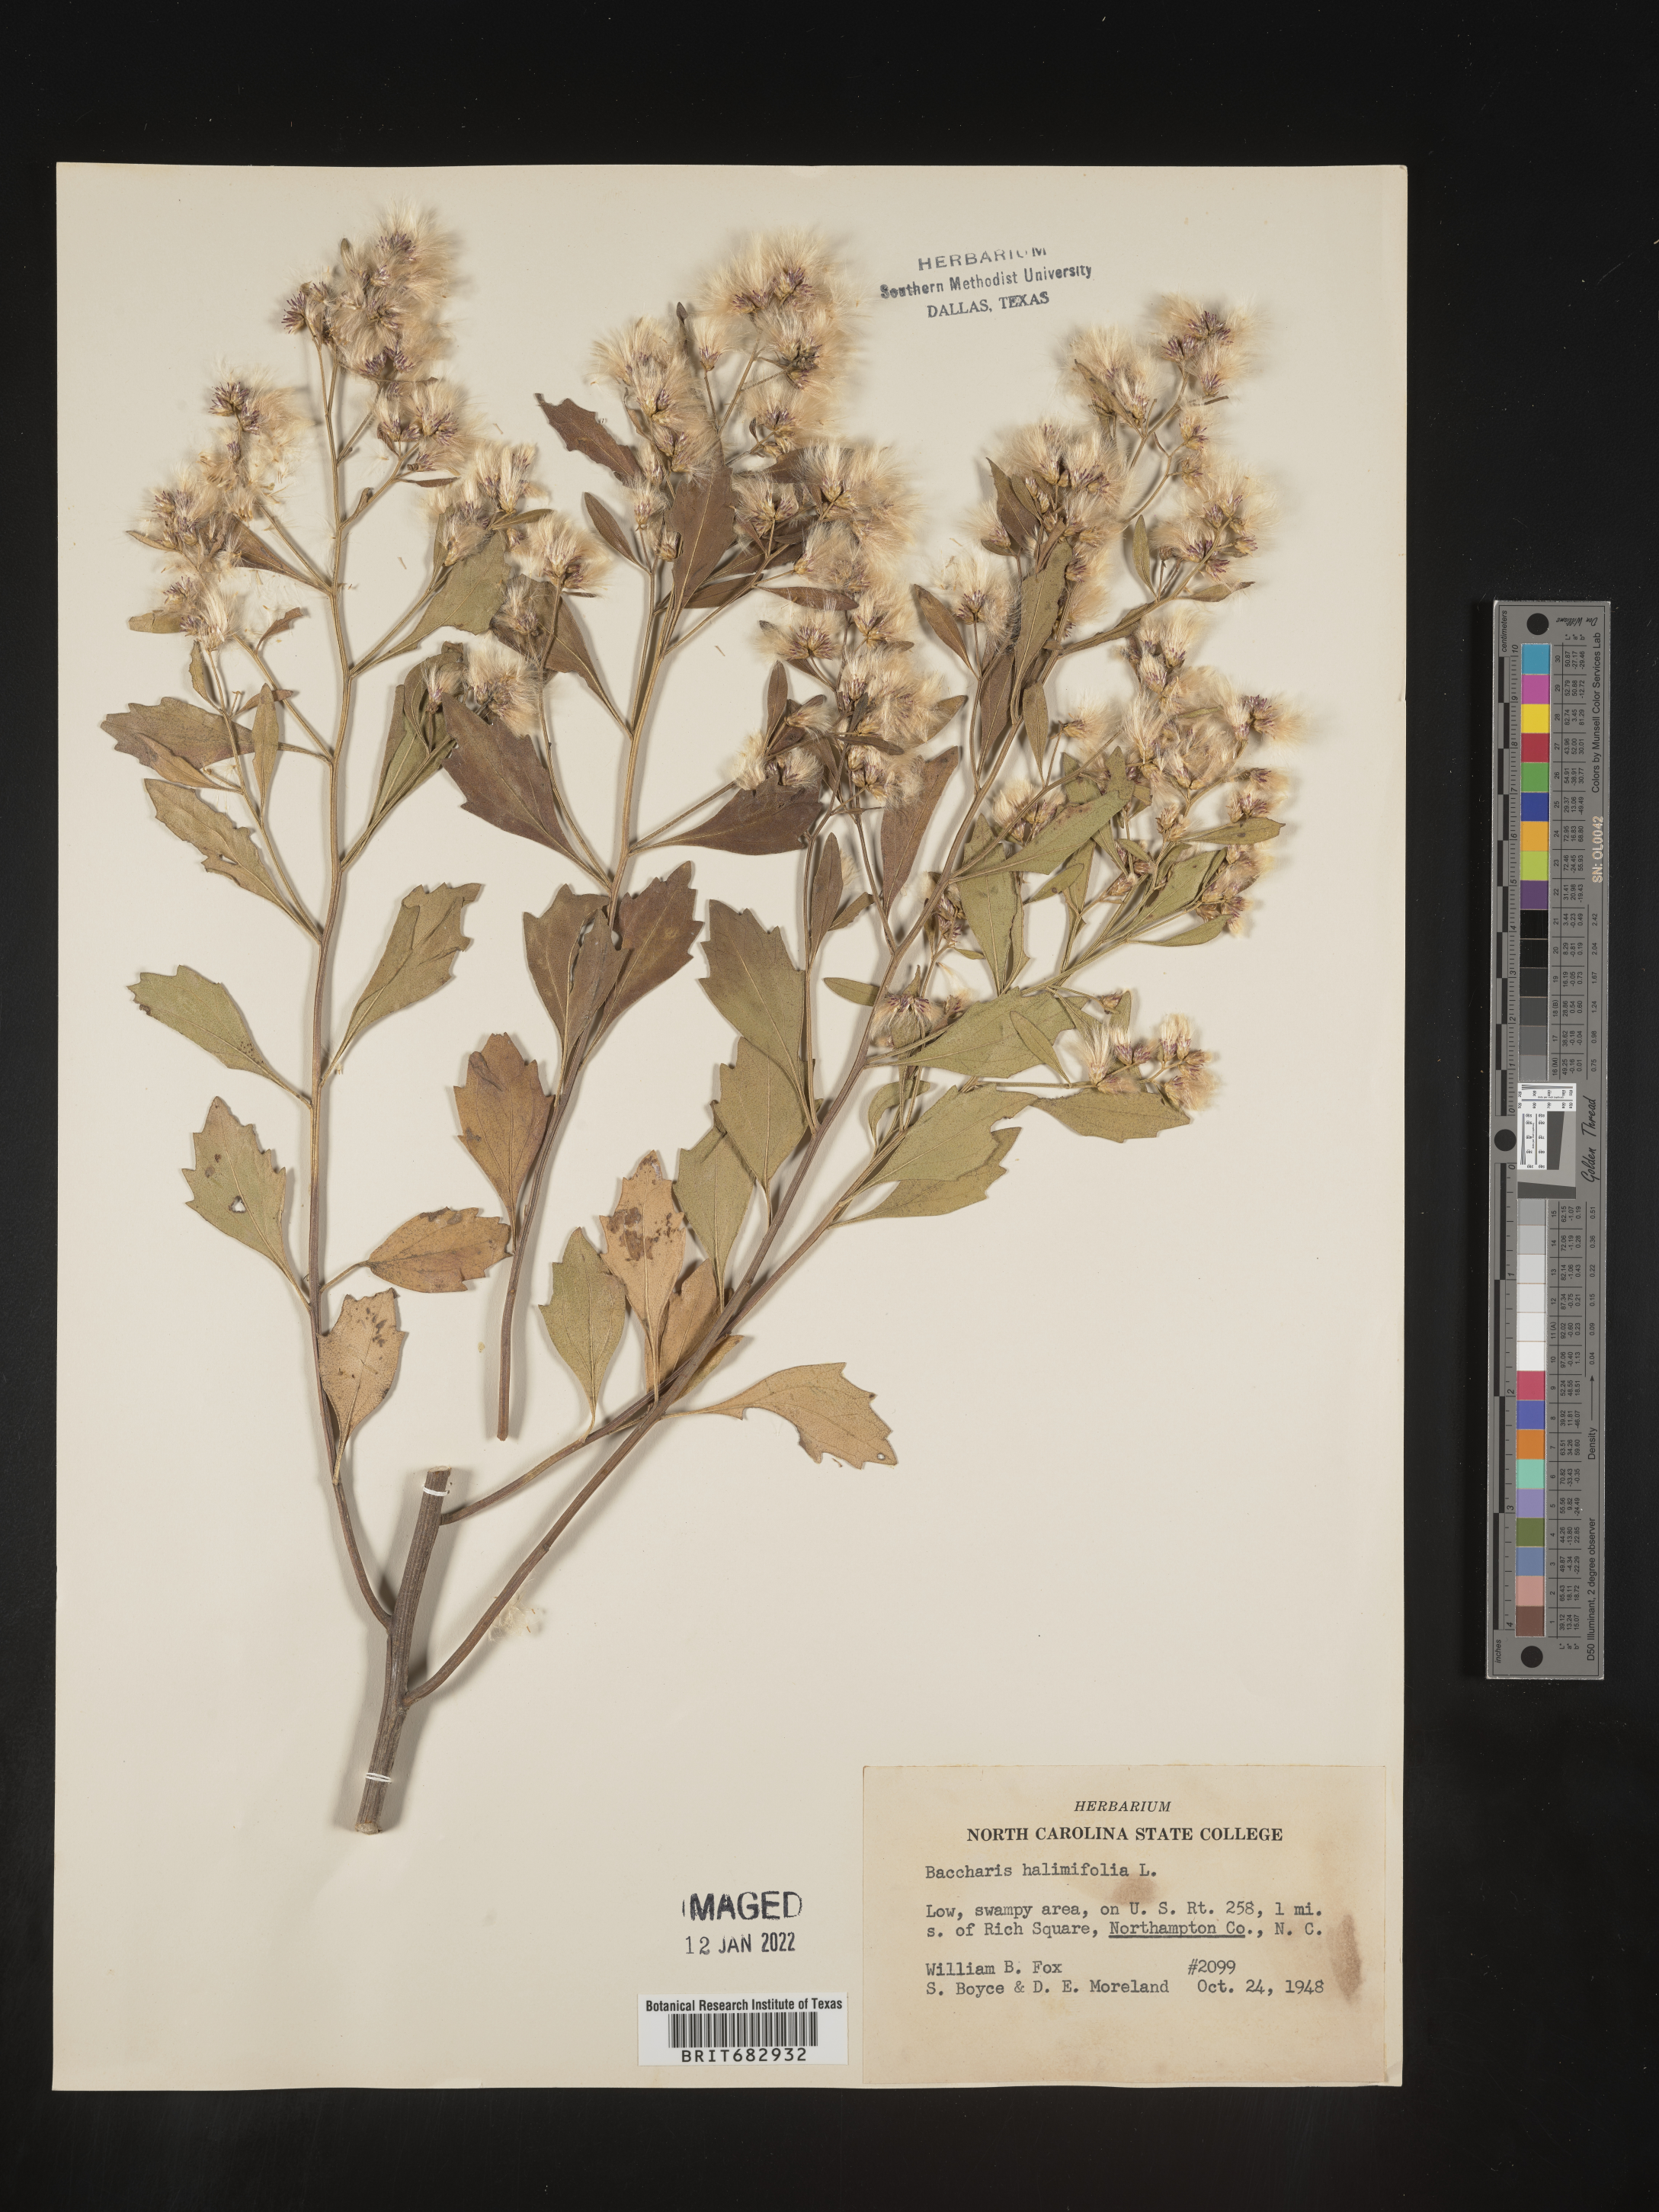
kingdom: Plantae
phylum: Tracheophyta
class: Magnoliopsida
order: Asterales
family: Asteraceae
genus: Nidorella
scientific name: Nidorella ivifolia
